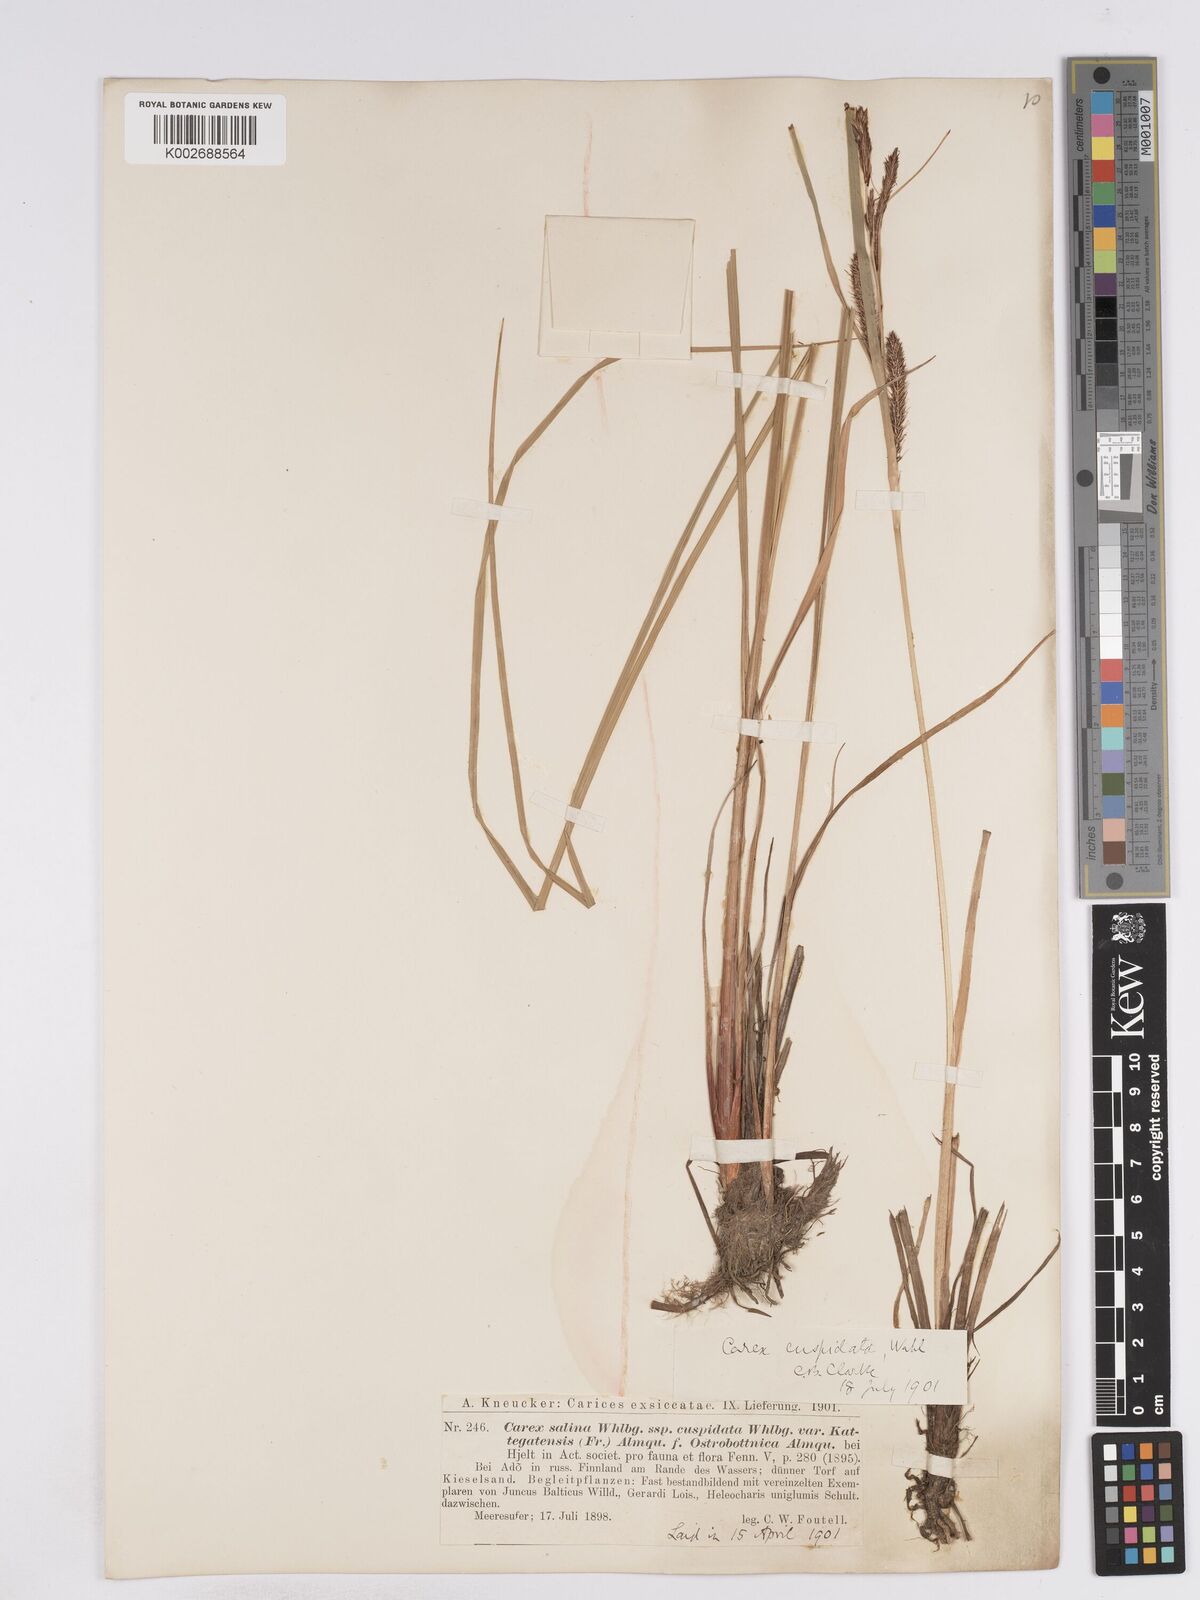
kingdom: Plantae
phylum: Tracheophyta
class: Liliopsida
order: Poales
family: Cyperaceae
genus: Carex
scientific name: Carex recta
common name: Estuarine sedge
